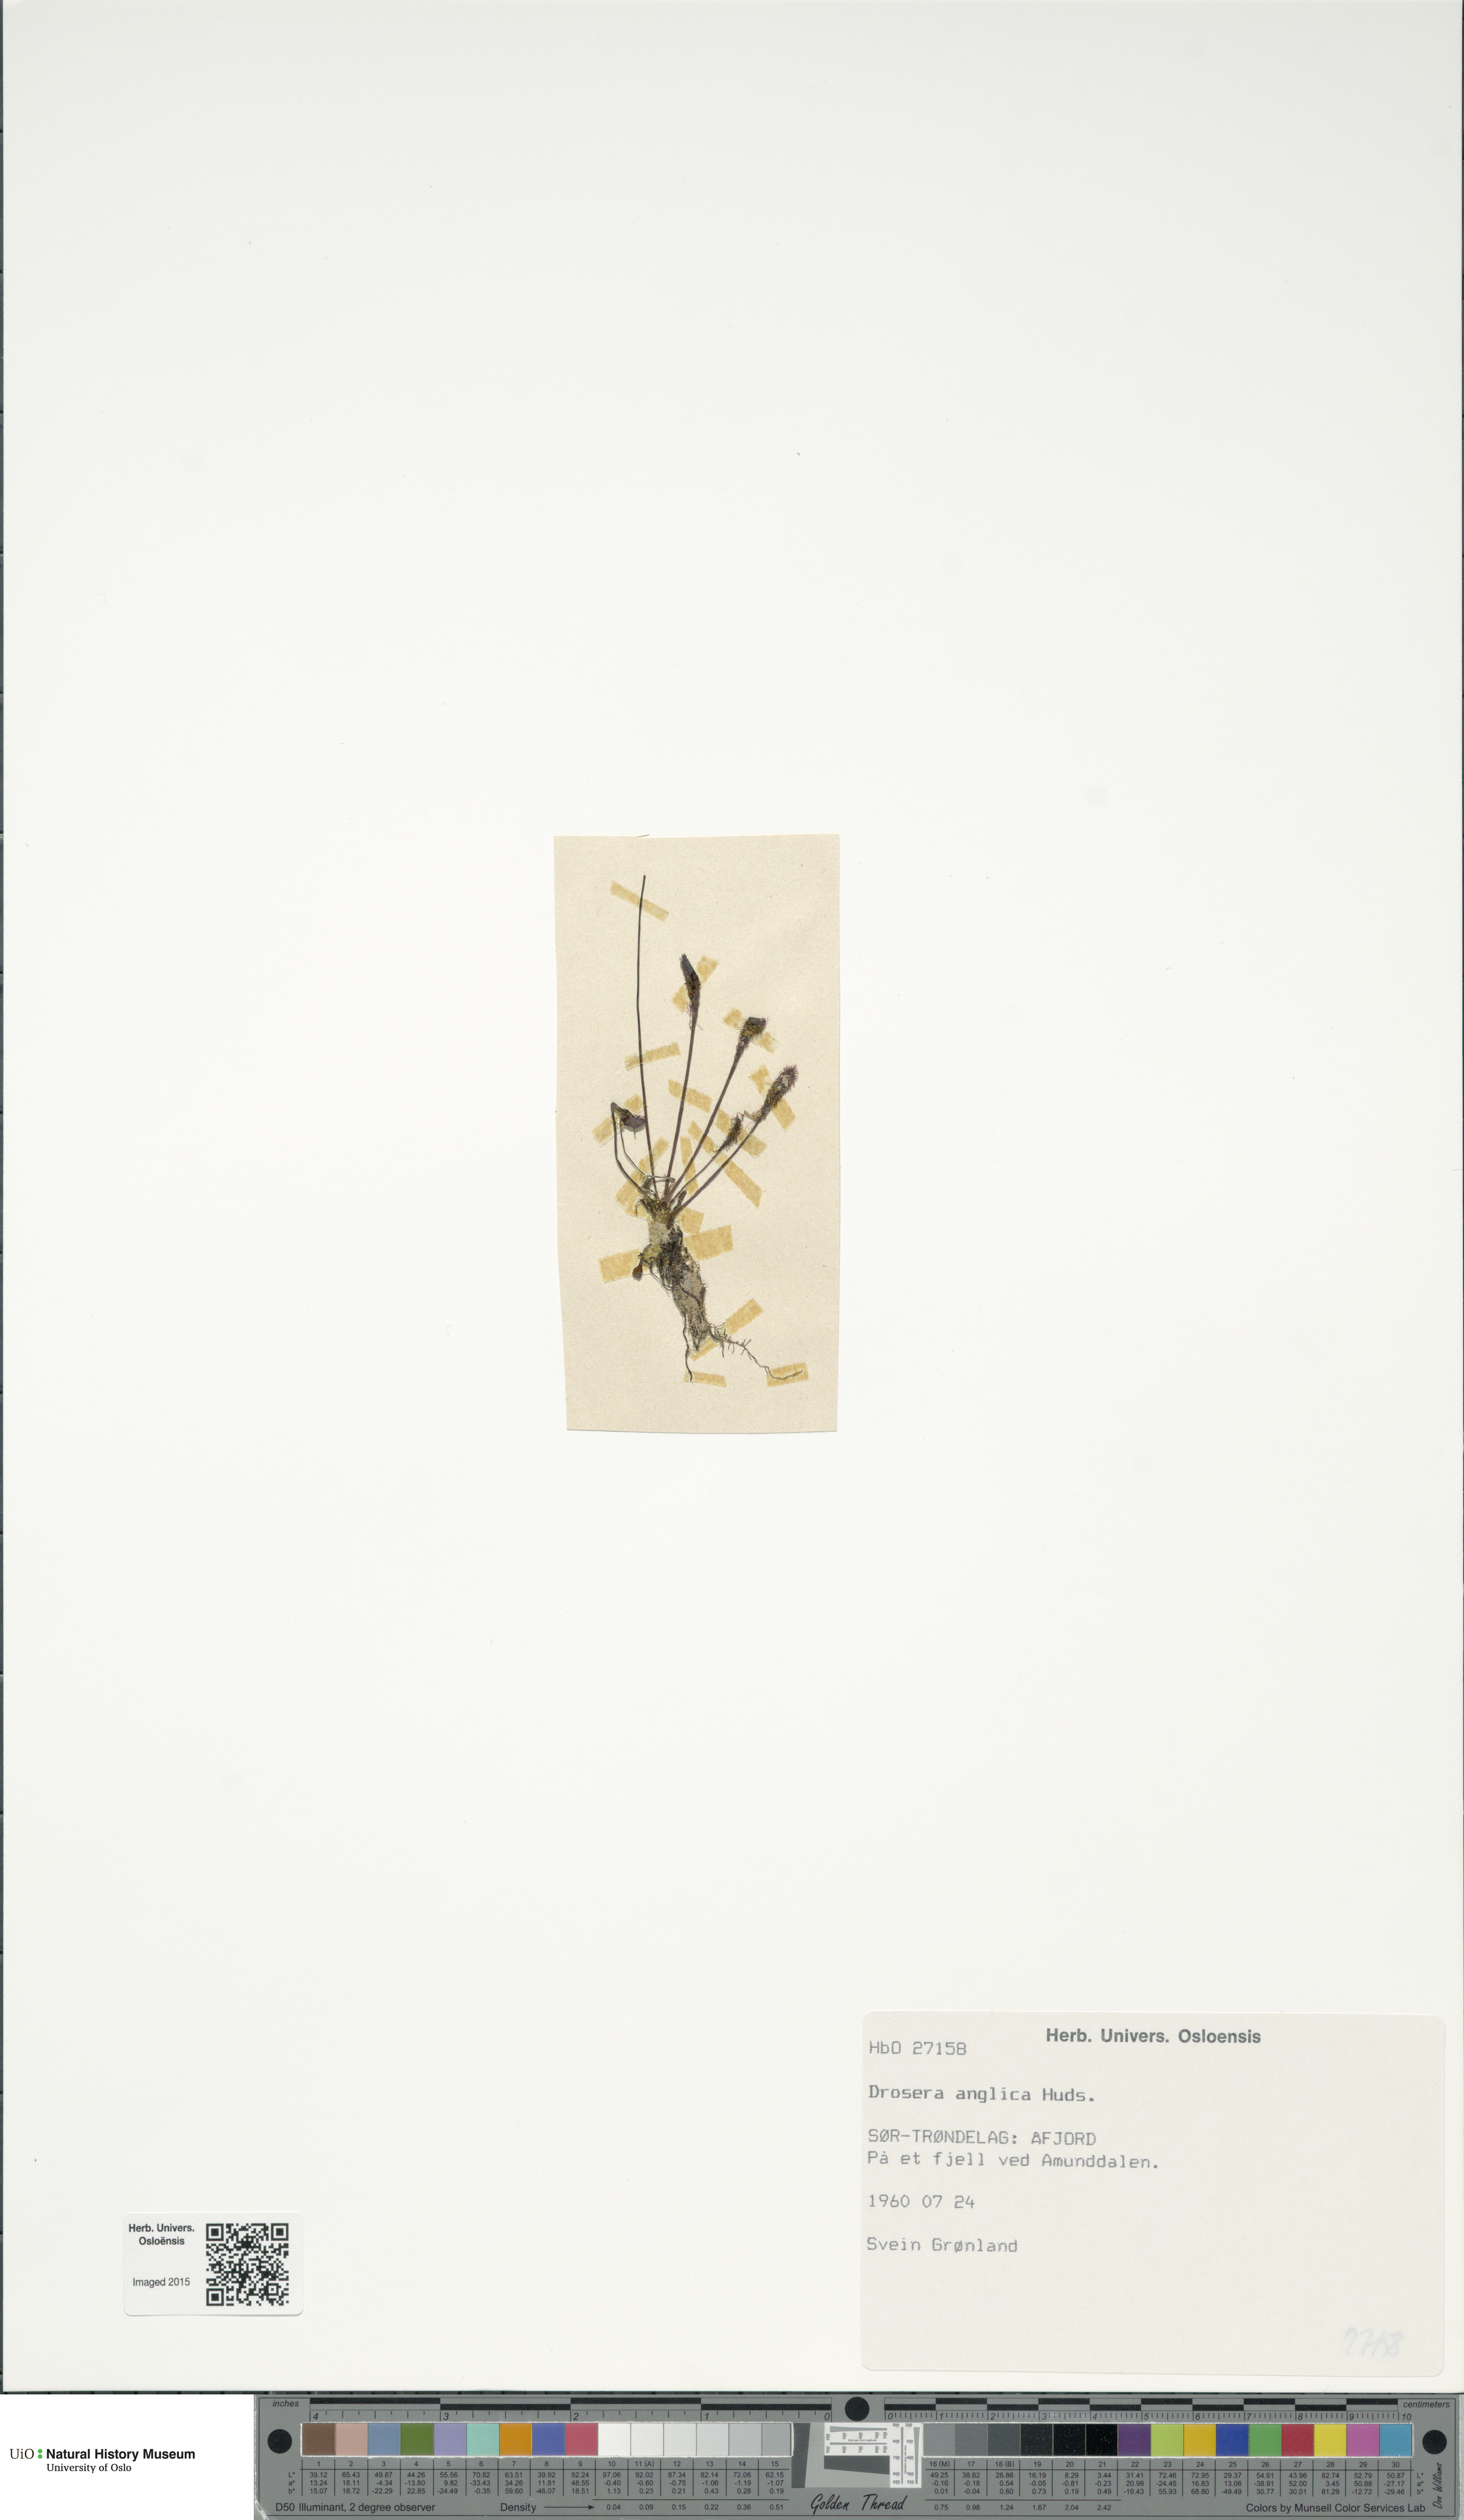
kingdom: Plantae
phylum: Tracheophyta
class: Magnoliopsida
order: Caryophyllales
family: Droseraceae
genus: Drosera
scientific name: Drosera anglica
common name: Great sundew
